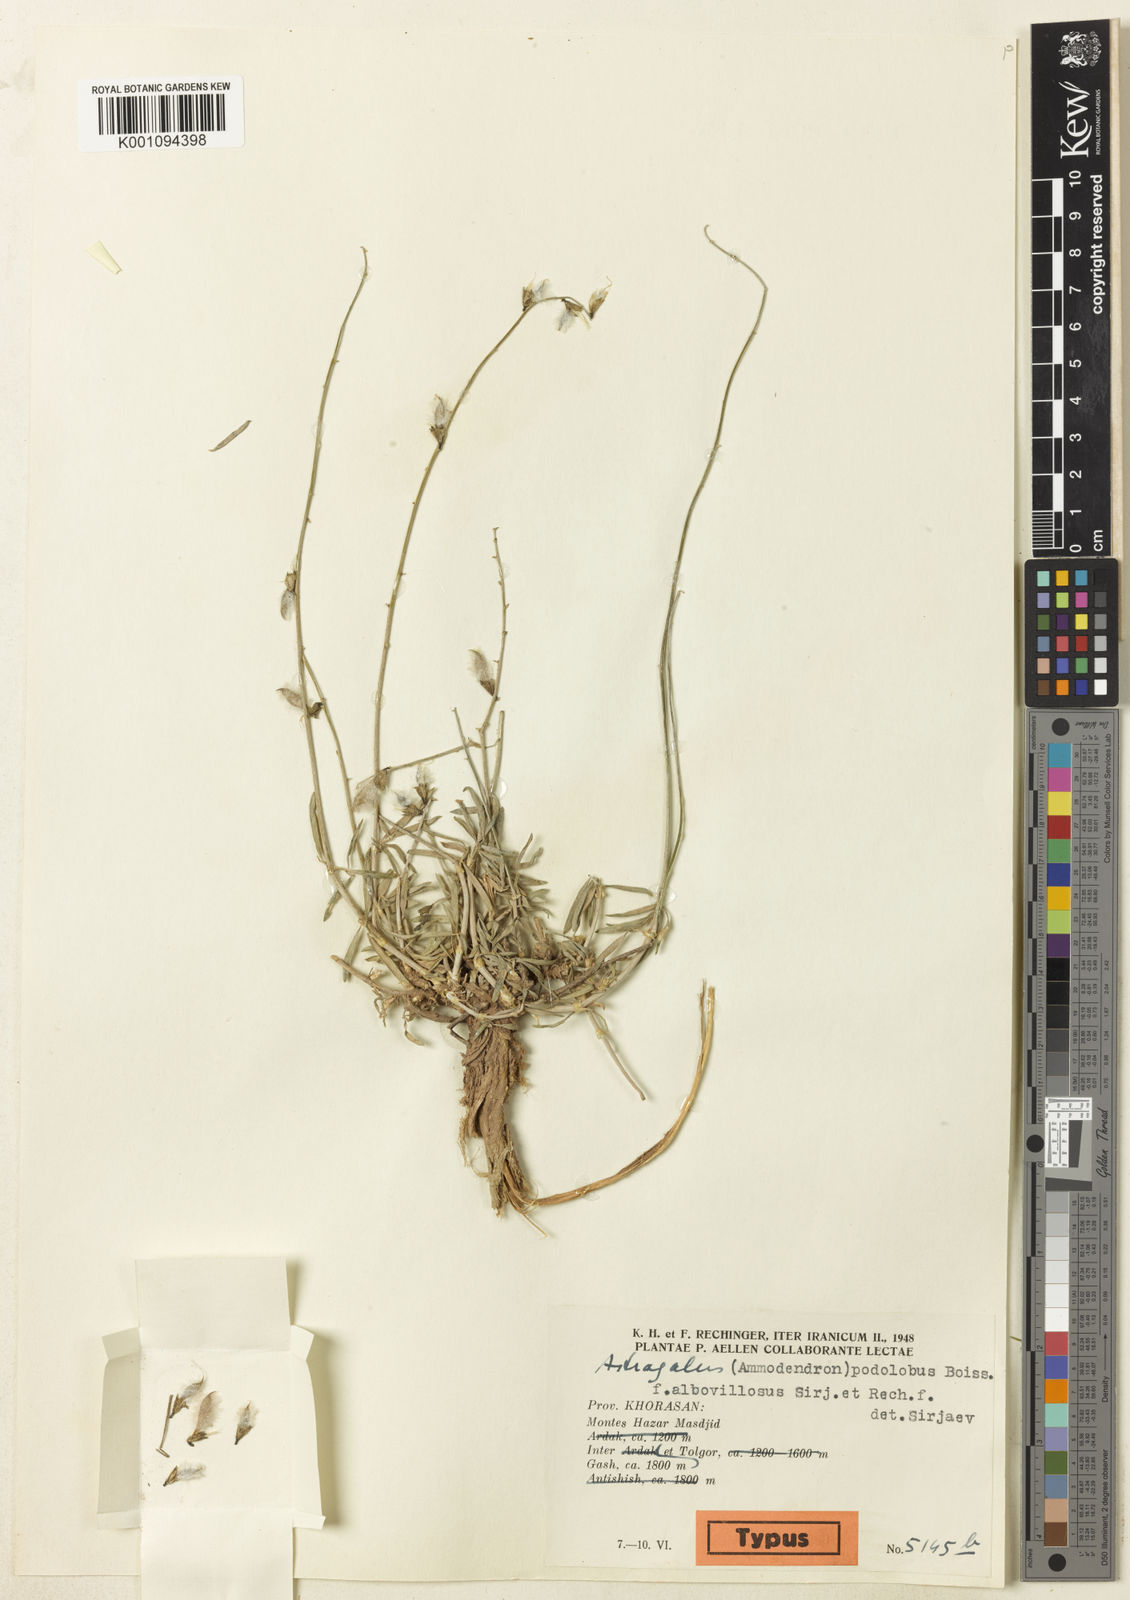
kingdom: Plantae
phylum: Tracheophyta
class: Magnoliopsida
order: Fabales
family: Fabaceae
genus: Astragalus
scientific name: Astragalus
